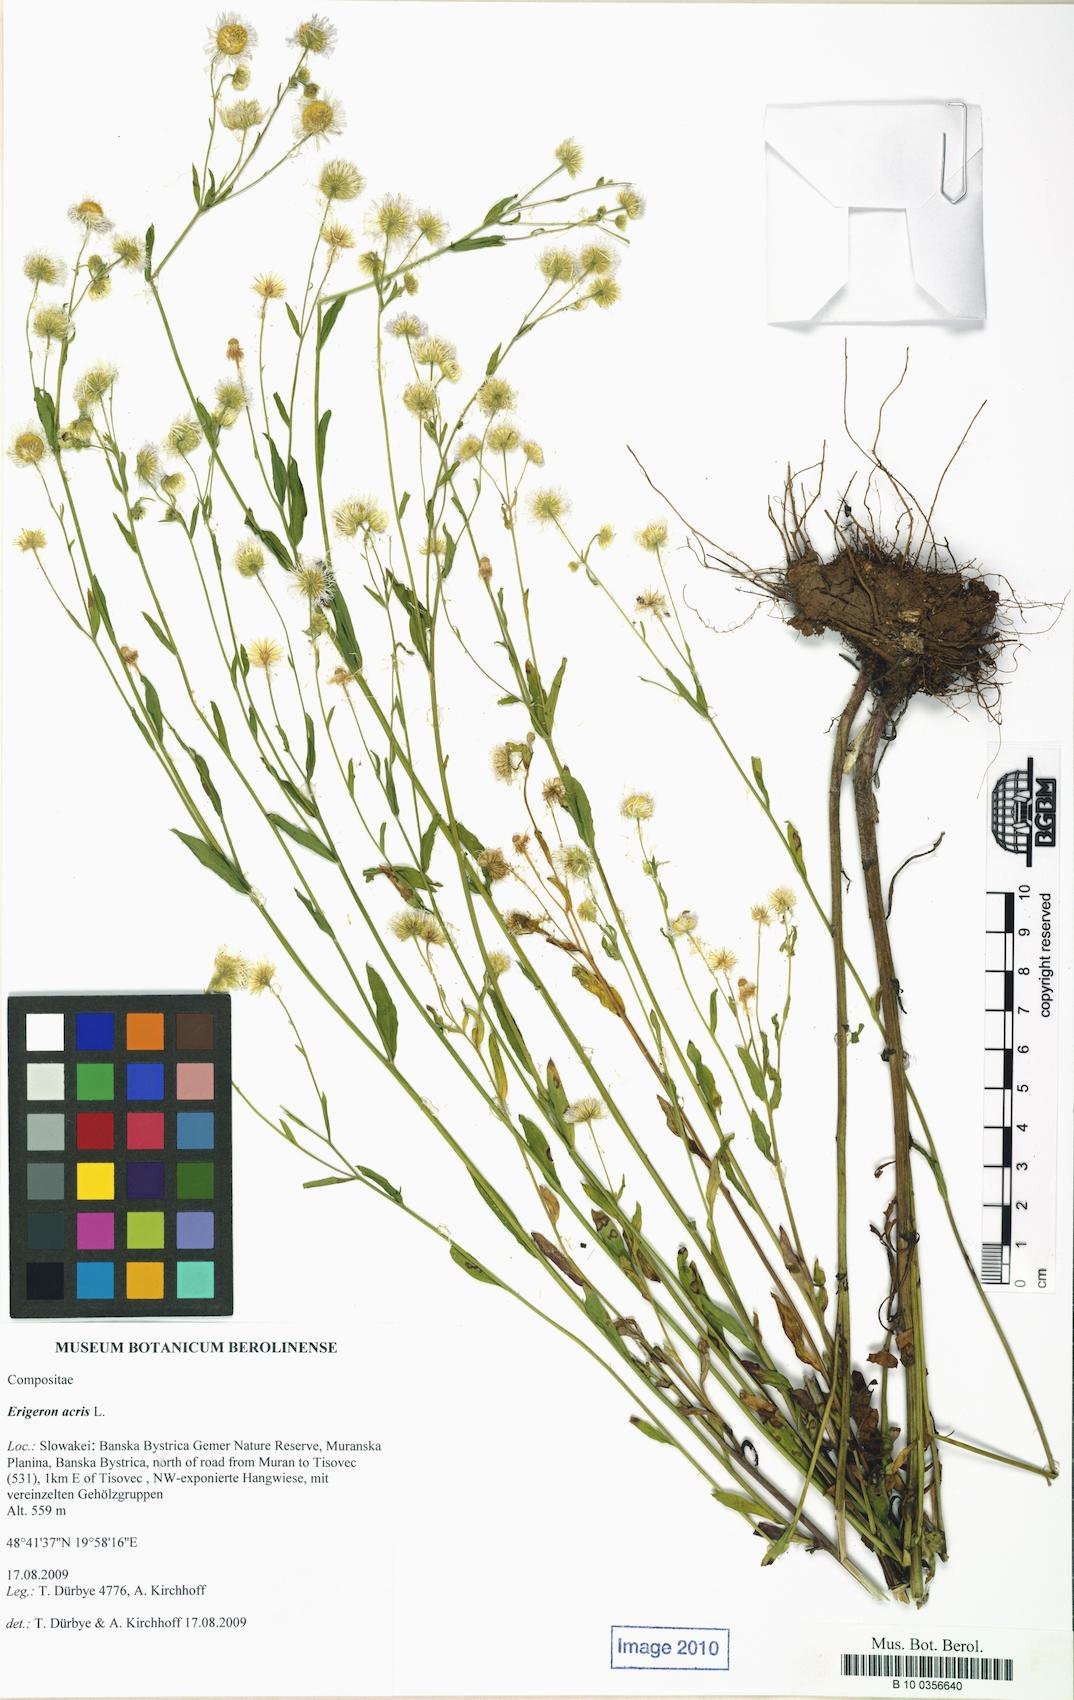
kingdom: Plantae
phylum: Tracheophyta
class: Magnoliopsida
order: Asterales
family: Asteraceae
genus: Erigeron
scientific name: Erigeron acris
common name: Blue fleabane
